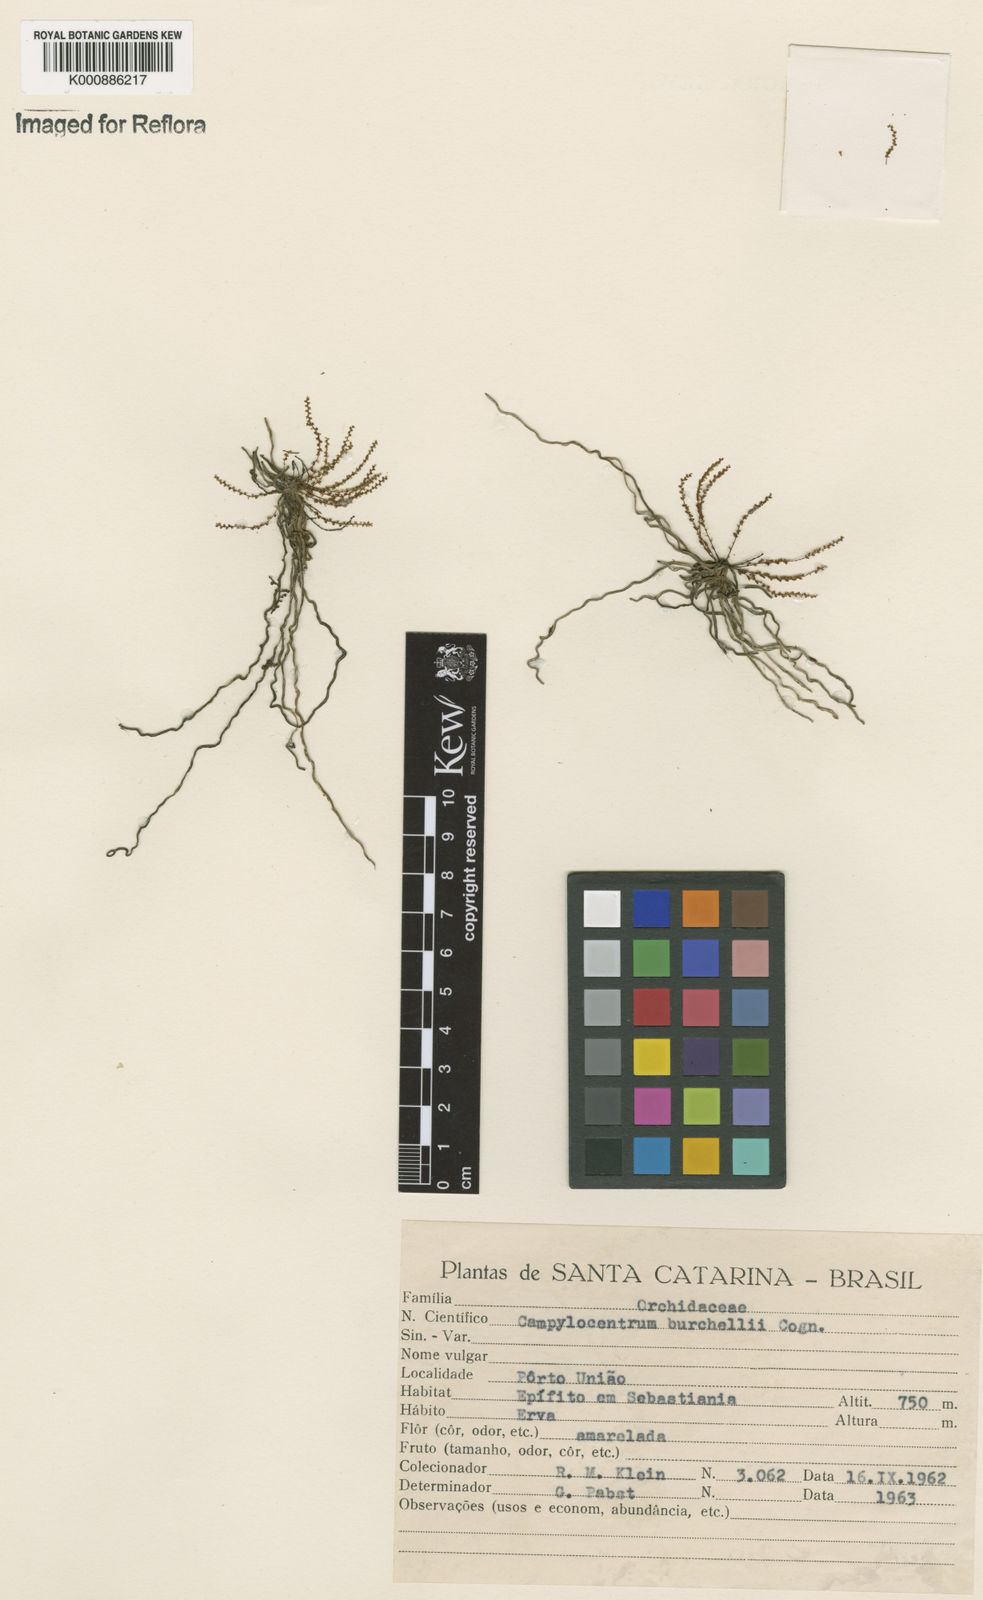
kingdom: Plantae
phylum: Tracheophyta
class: Liliopsida
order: Asparagales
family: Orchidaceae
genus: Campylocentrum
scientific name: Campylocentrum grisebachii
